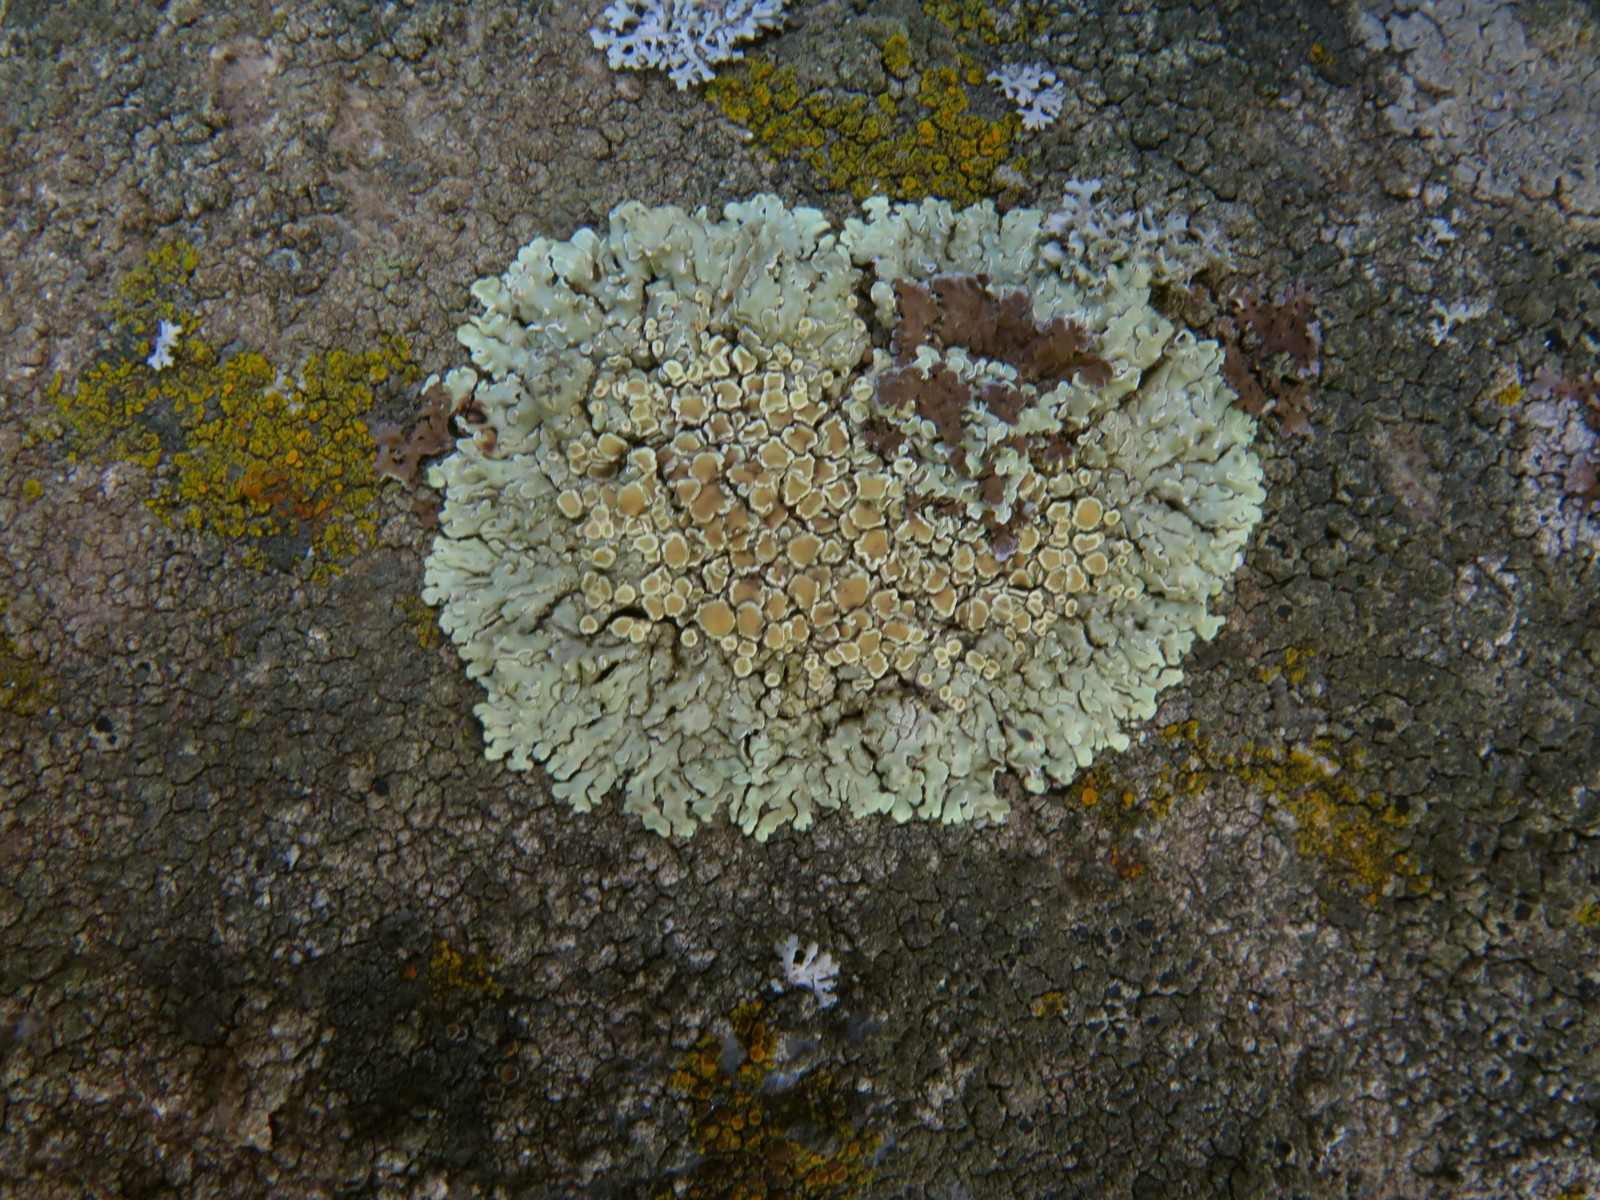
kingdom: Fungi
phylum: Ascomycota
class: Lecanoromycetes
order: Lecanorales
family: Lecanoraceae
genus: Protoparmeliopsis
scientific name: Protoparmeliopsis muralis
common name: randfliget kantskivelav
